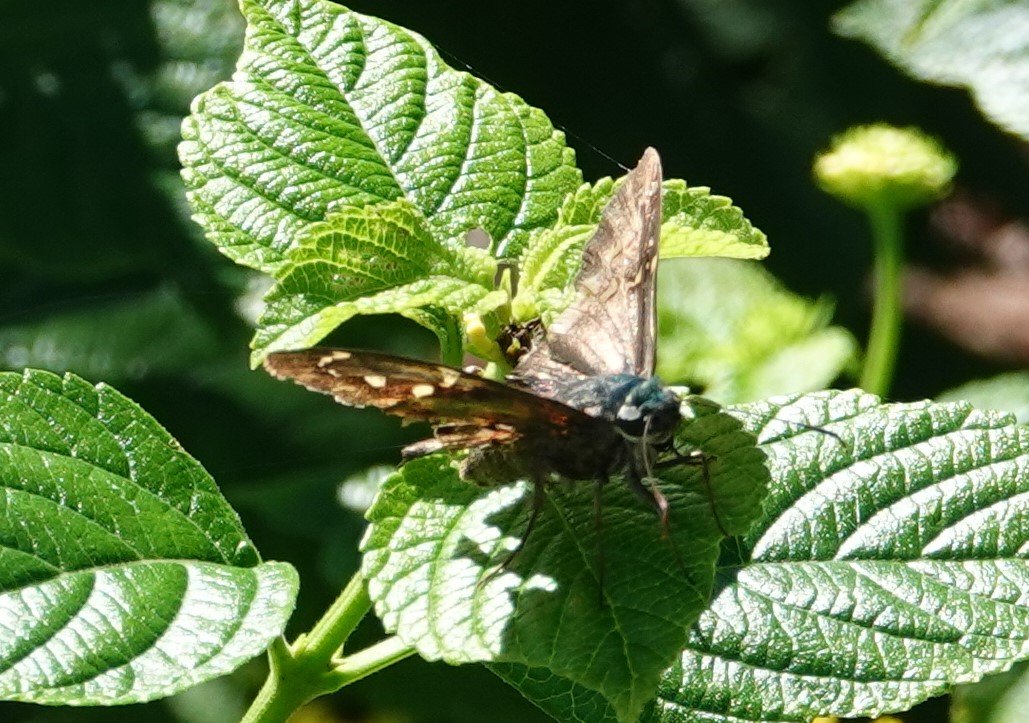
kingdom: Animalia
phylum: Arthropoda
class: Insecta
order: Lepidoptera
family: Hesperiidae
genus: Urbanus
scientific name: Urbanus proteus
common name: Long-tailed Skipper
